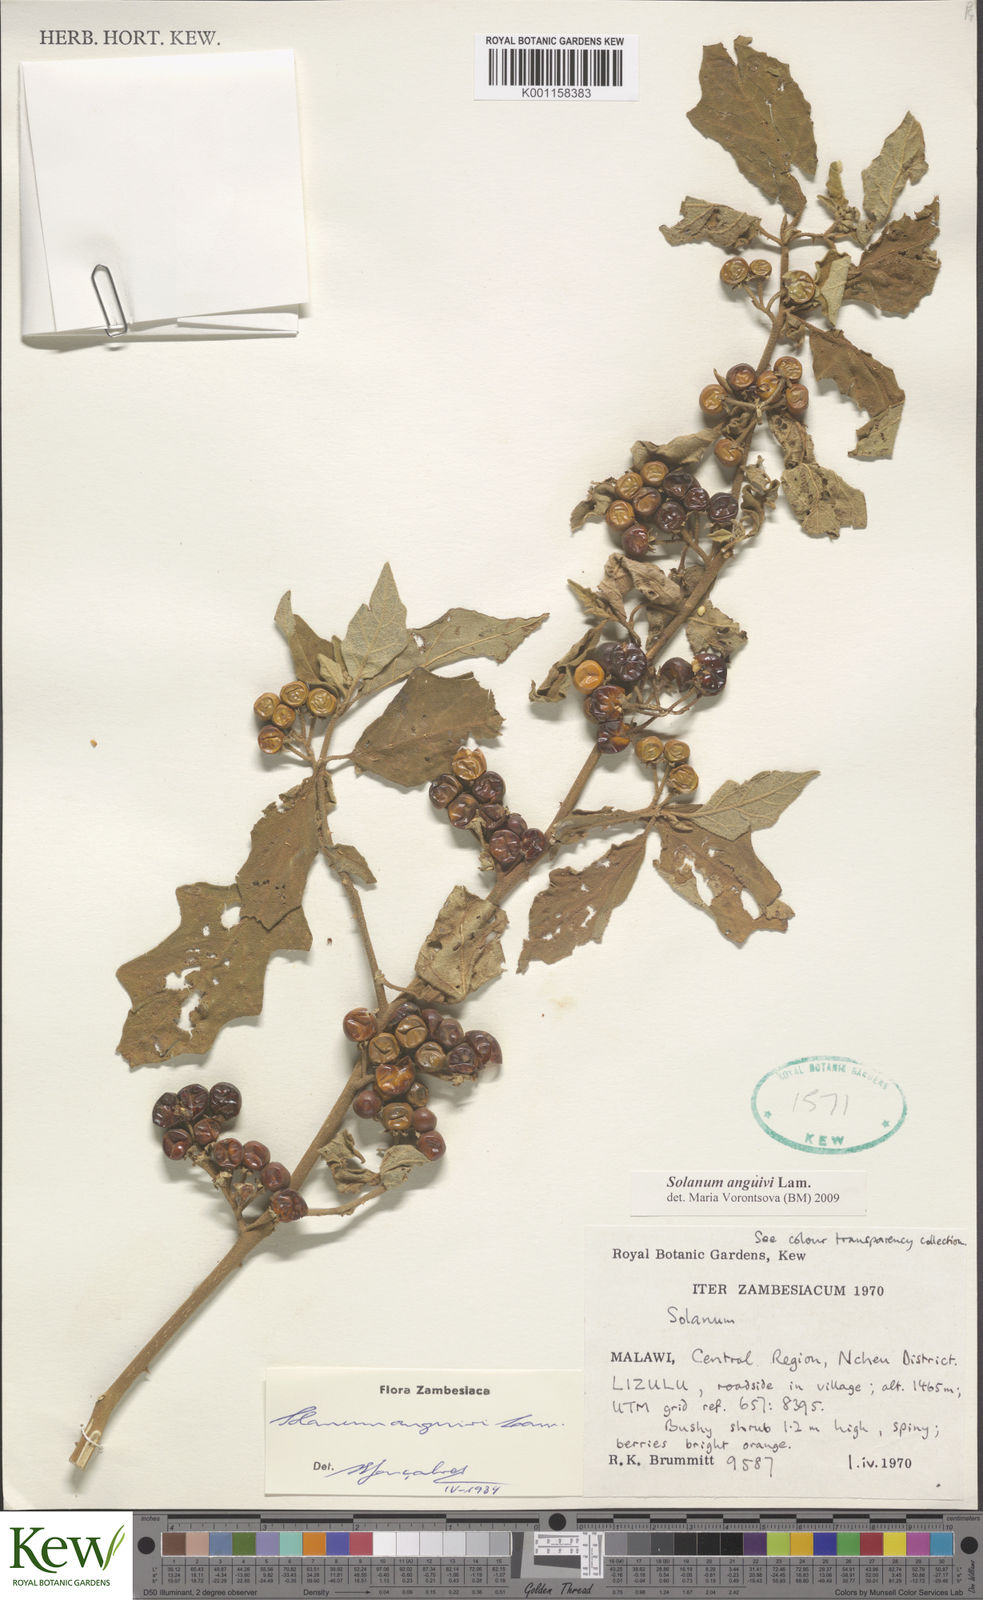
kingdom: Plantae
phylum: Tracheophyta
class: Magnoliopsida
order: Solanales
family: Solanaceae
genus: Solanum
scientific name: Solanum anguivi
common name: Forest bitterberry
